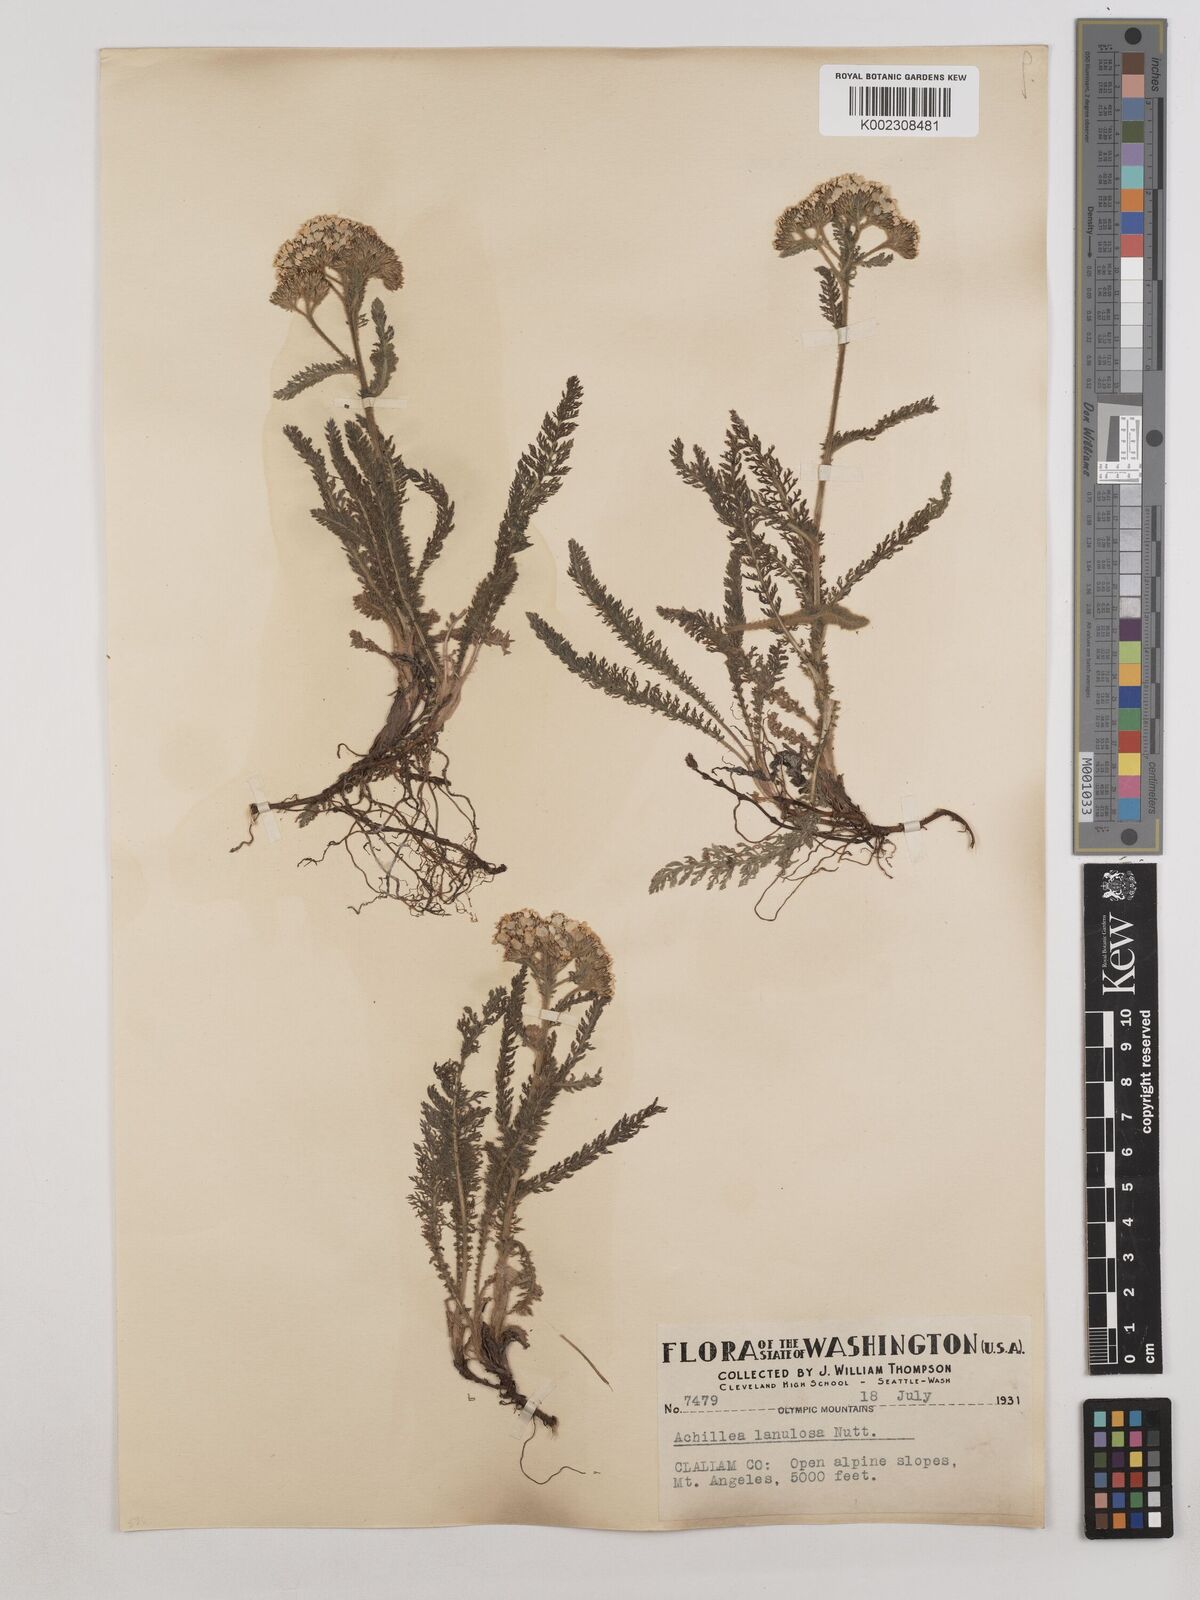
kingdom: Plantae
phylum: Tracheophyta
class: Magnoliopsida
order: Asterales
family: Asteraceae
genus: Achillea
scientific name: Achillea millefolium
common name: Yarrow
